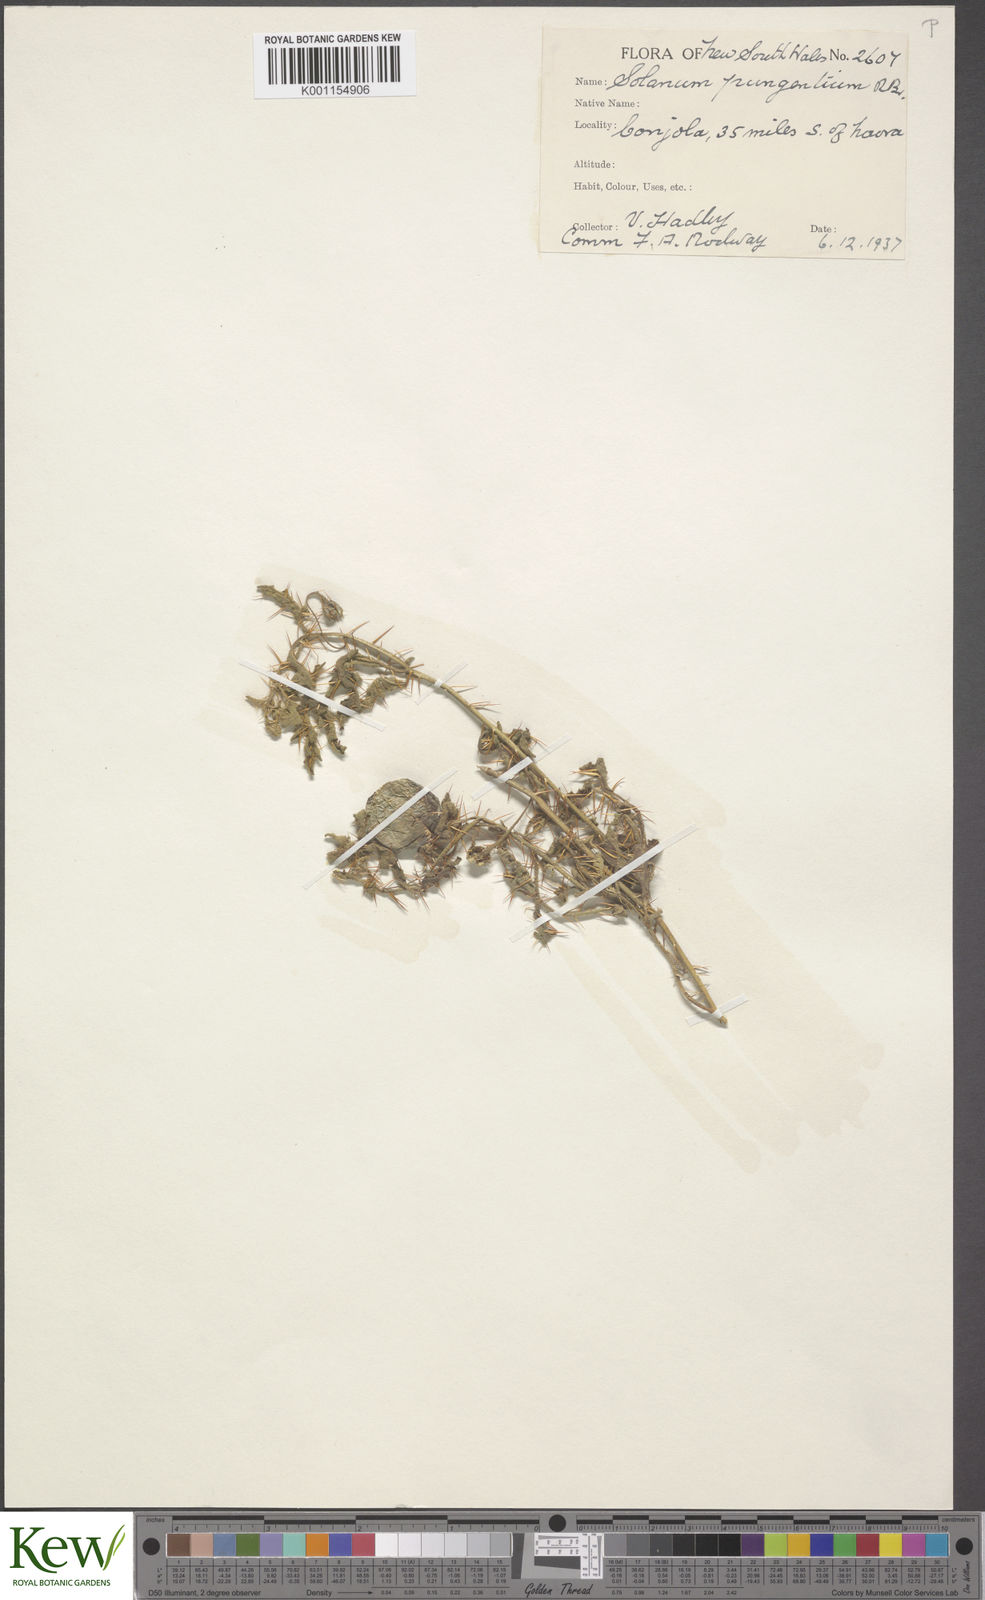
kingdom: Plantae
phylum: Tracheophyta
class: Magnoliopsida
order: Solanales
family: Solanaceae
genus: Solanum
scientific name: Solanum pungetium
